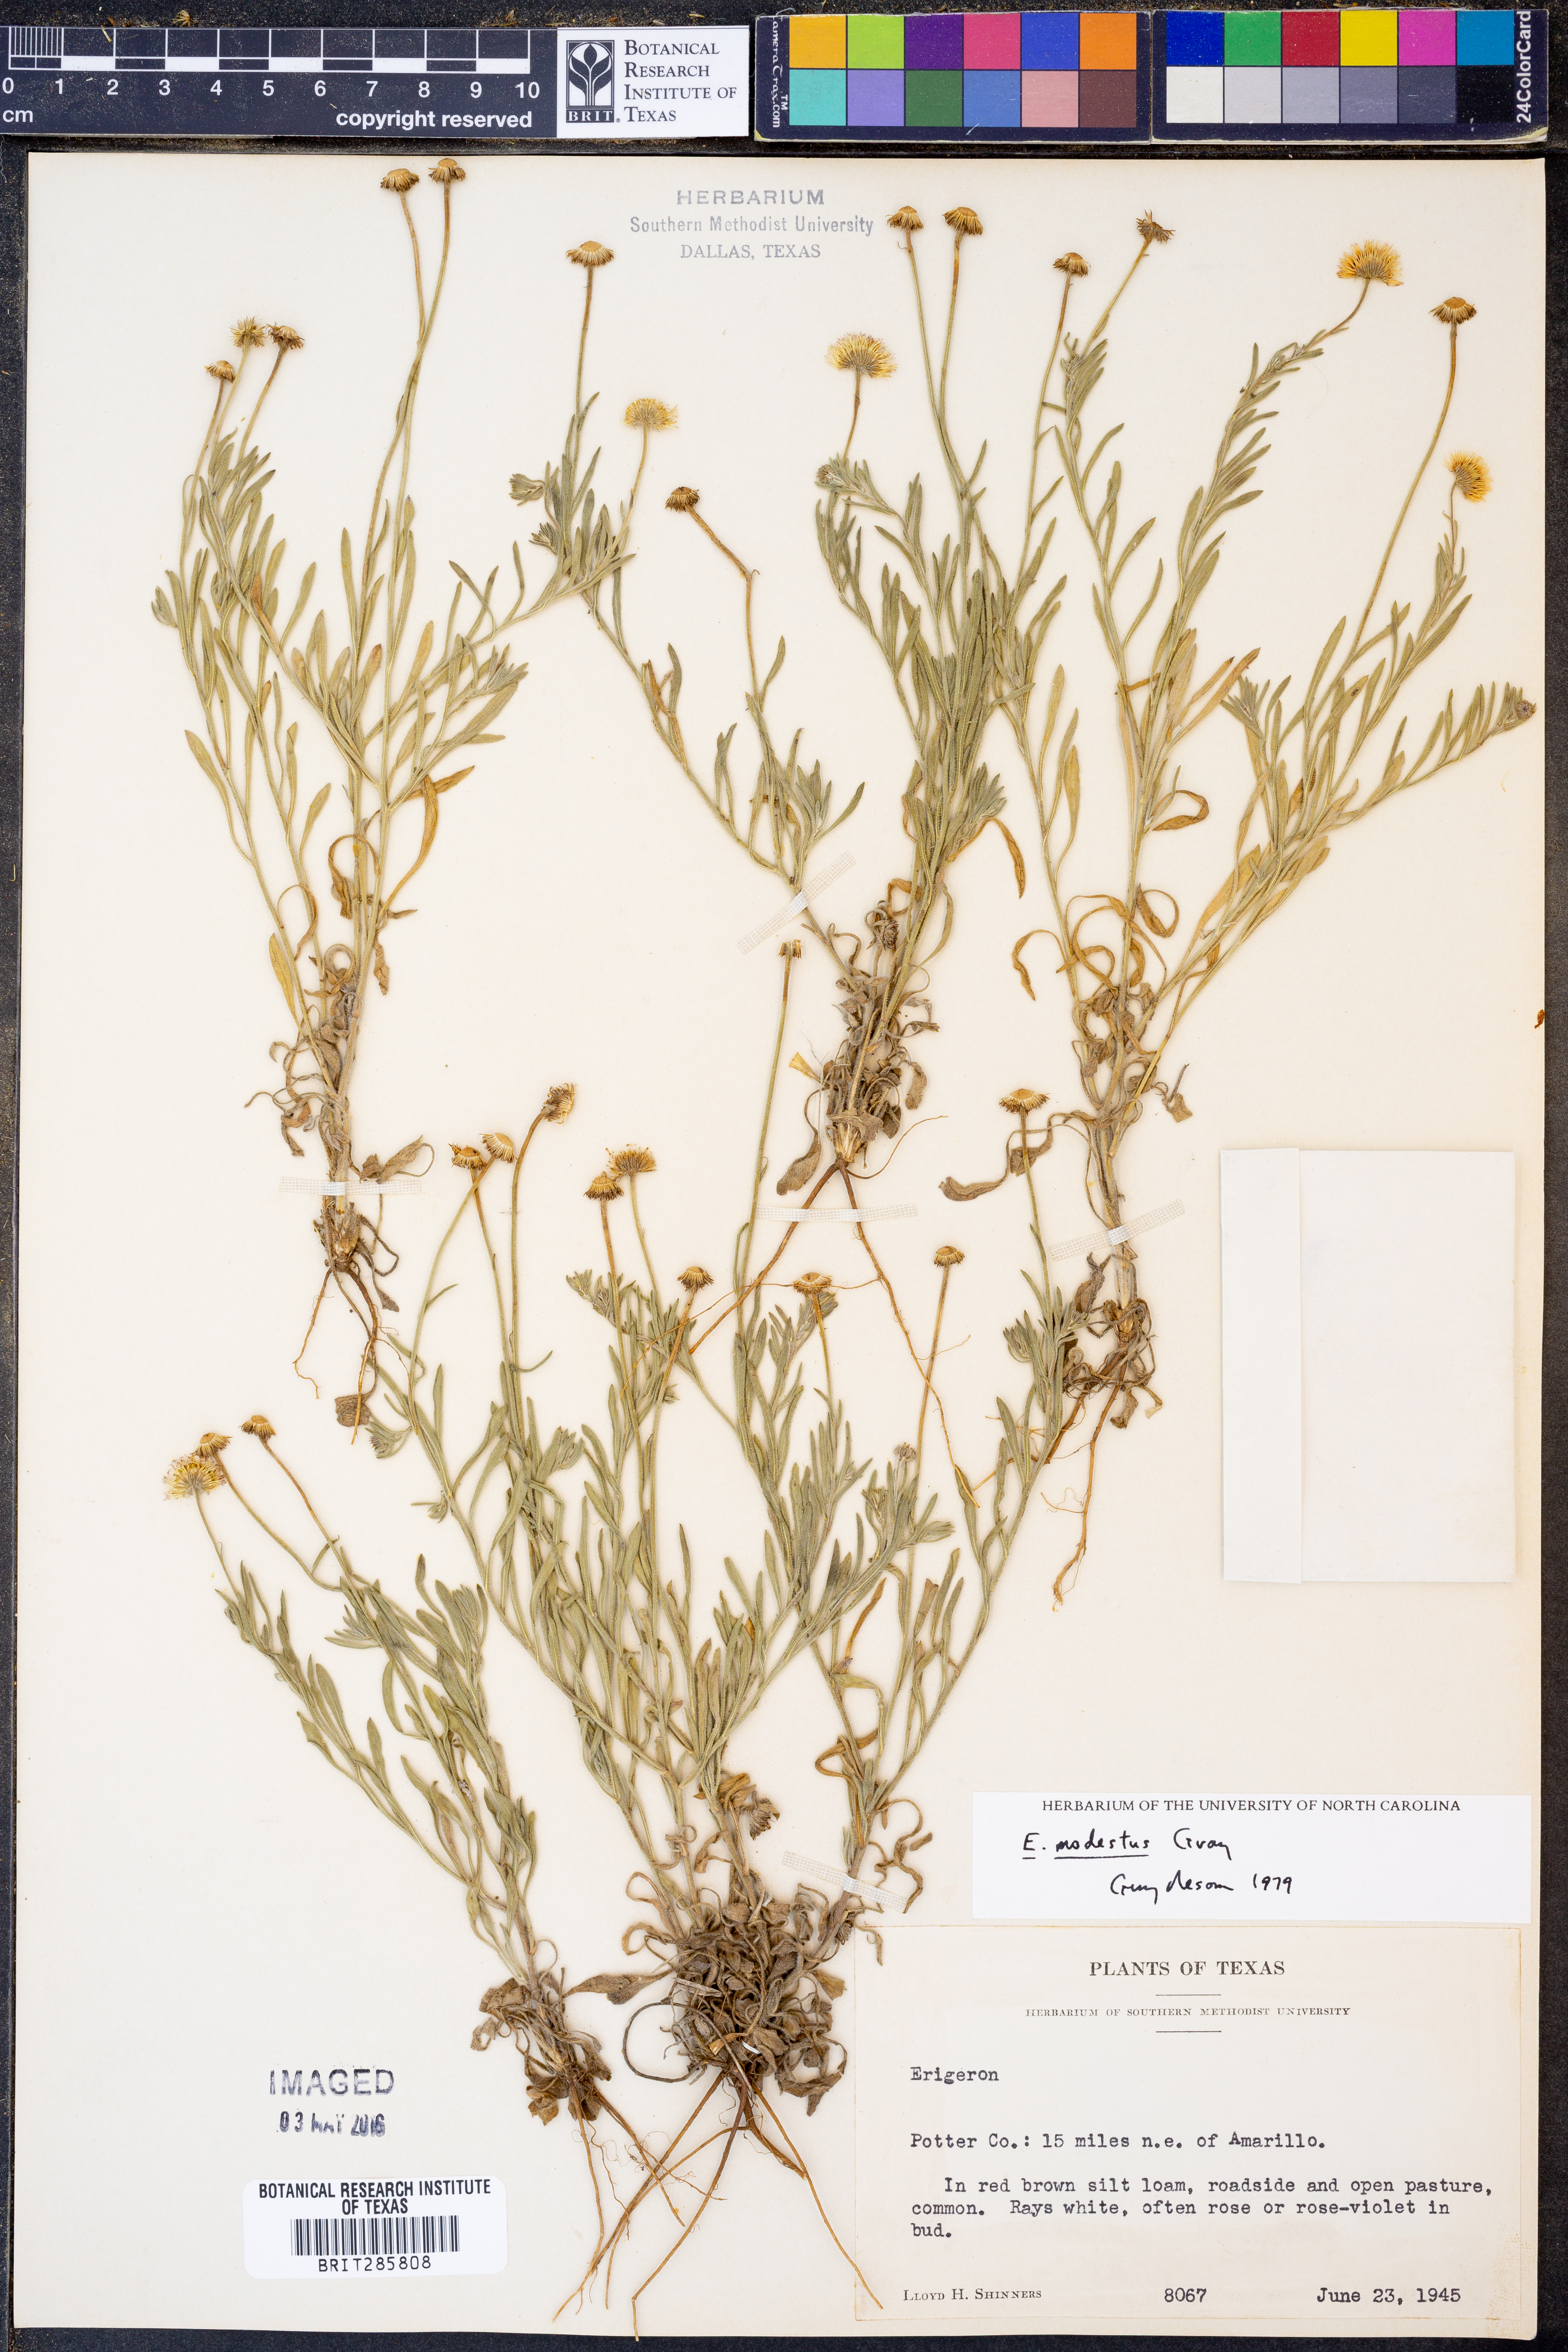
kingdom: Plantae
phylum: Tracheophyta
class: Magnoliopsida
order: Asterales
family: Asteraceae
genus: Erigeron
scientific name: Erigeron modestus
